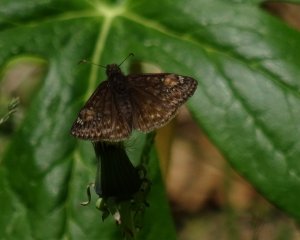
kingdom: Animalia
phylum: Arthropoda
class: Insecta
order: Lepidoptera
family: Hesperiidae
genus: Gesta
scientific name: Gesta
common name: Juvenal's Duskywing
